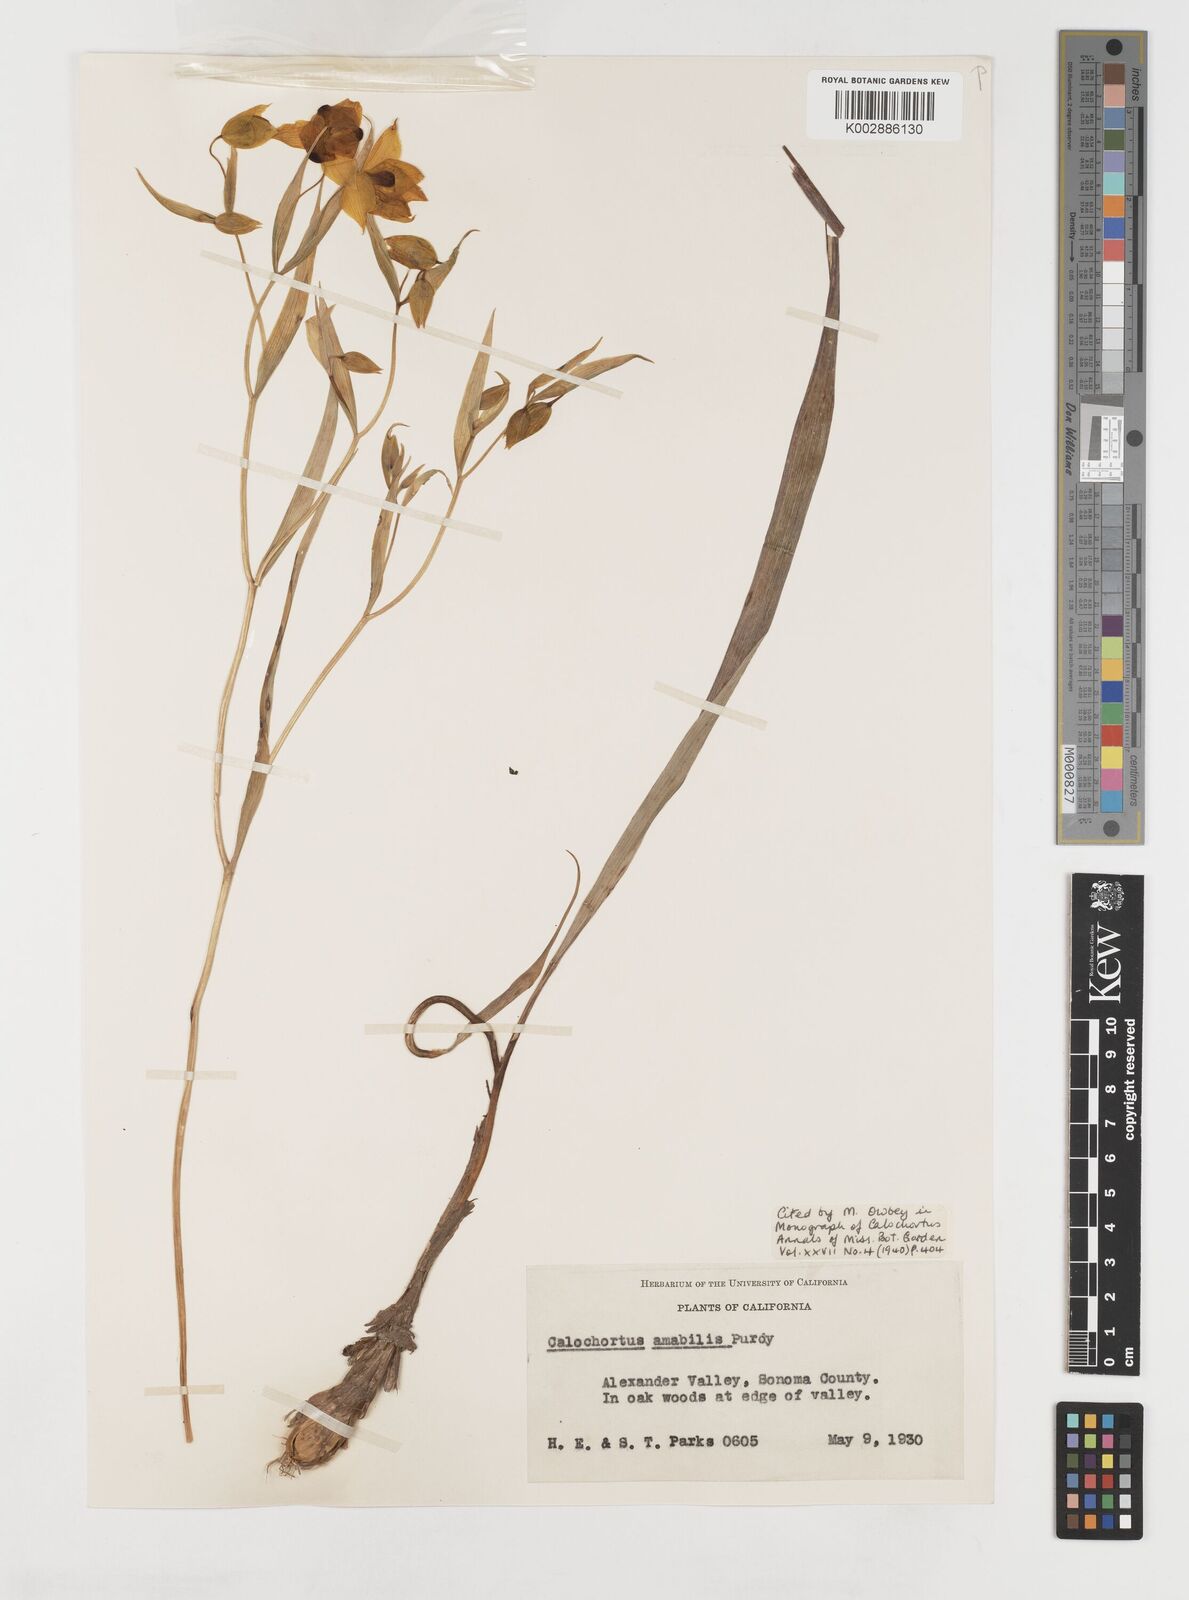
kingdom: Plantae
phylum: Tracheophyta
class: Liliopsida
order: Liliales
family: Liliaceae
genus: Calochortus
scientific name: Calochortus amabilis
